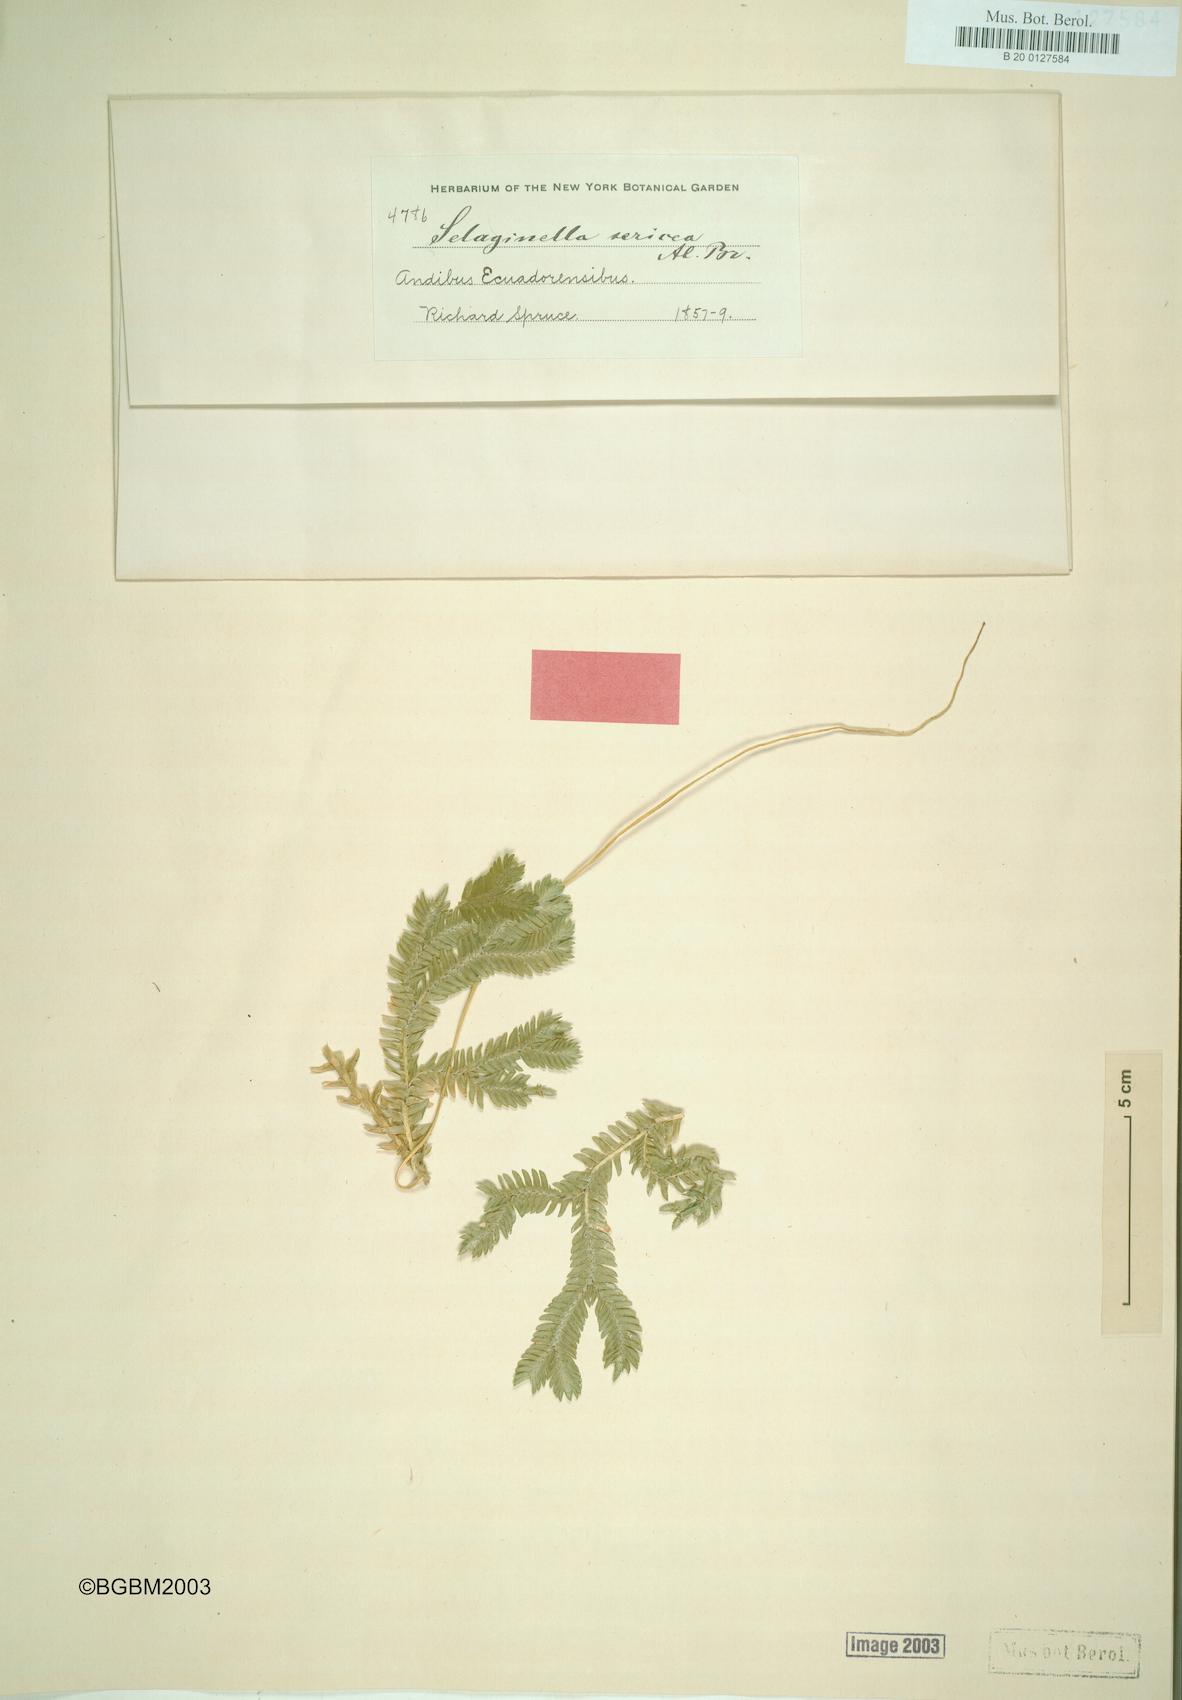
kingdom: Plantae
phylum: Tracheophyta
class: Lycopodiopsida
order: Selaginellales
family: Selaginellaceae
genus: Selaginella
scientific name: Selaginella sericea
